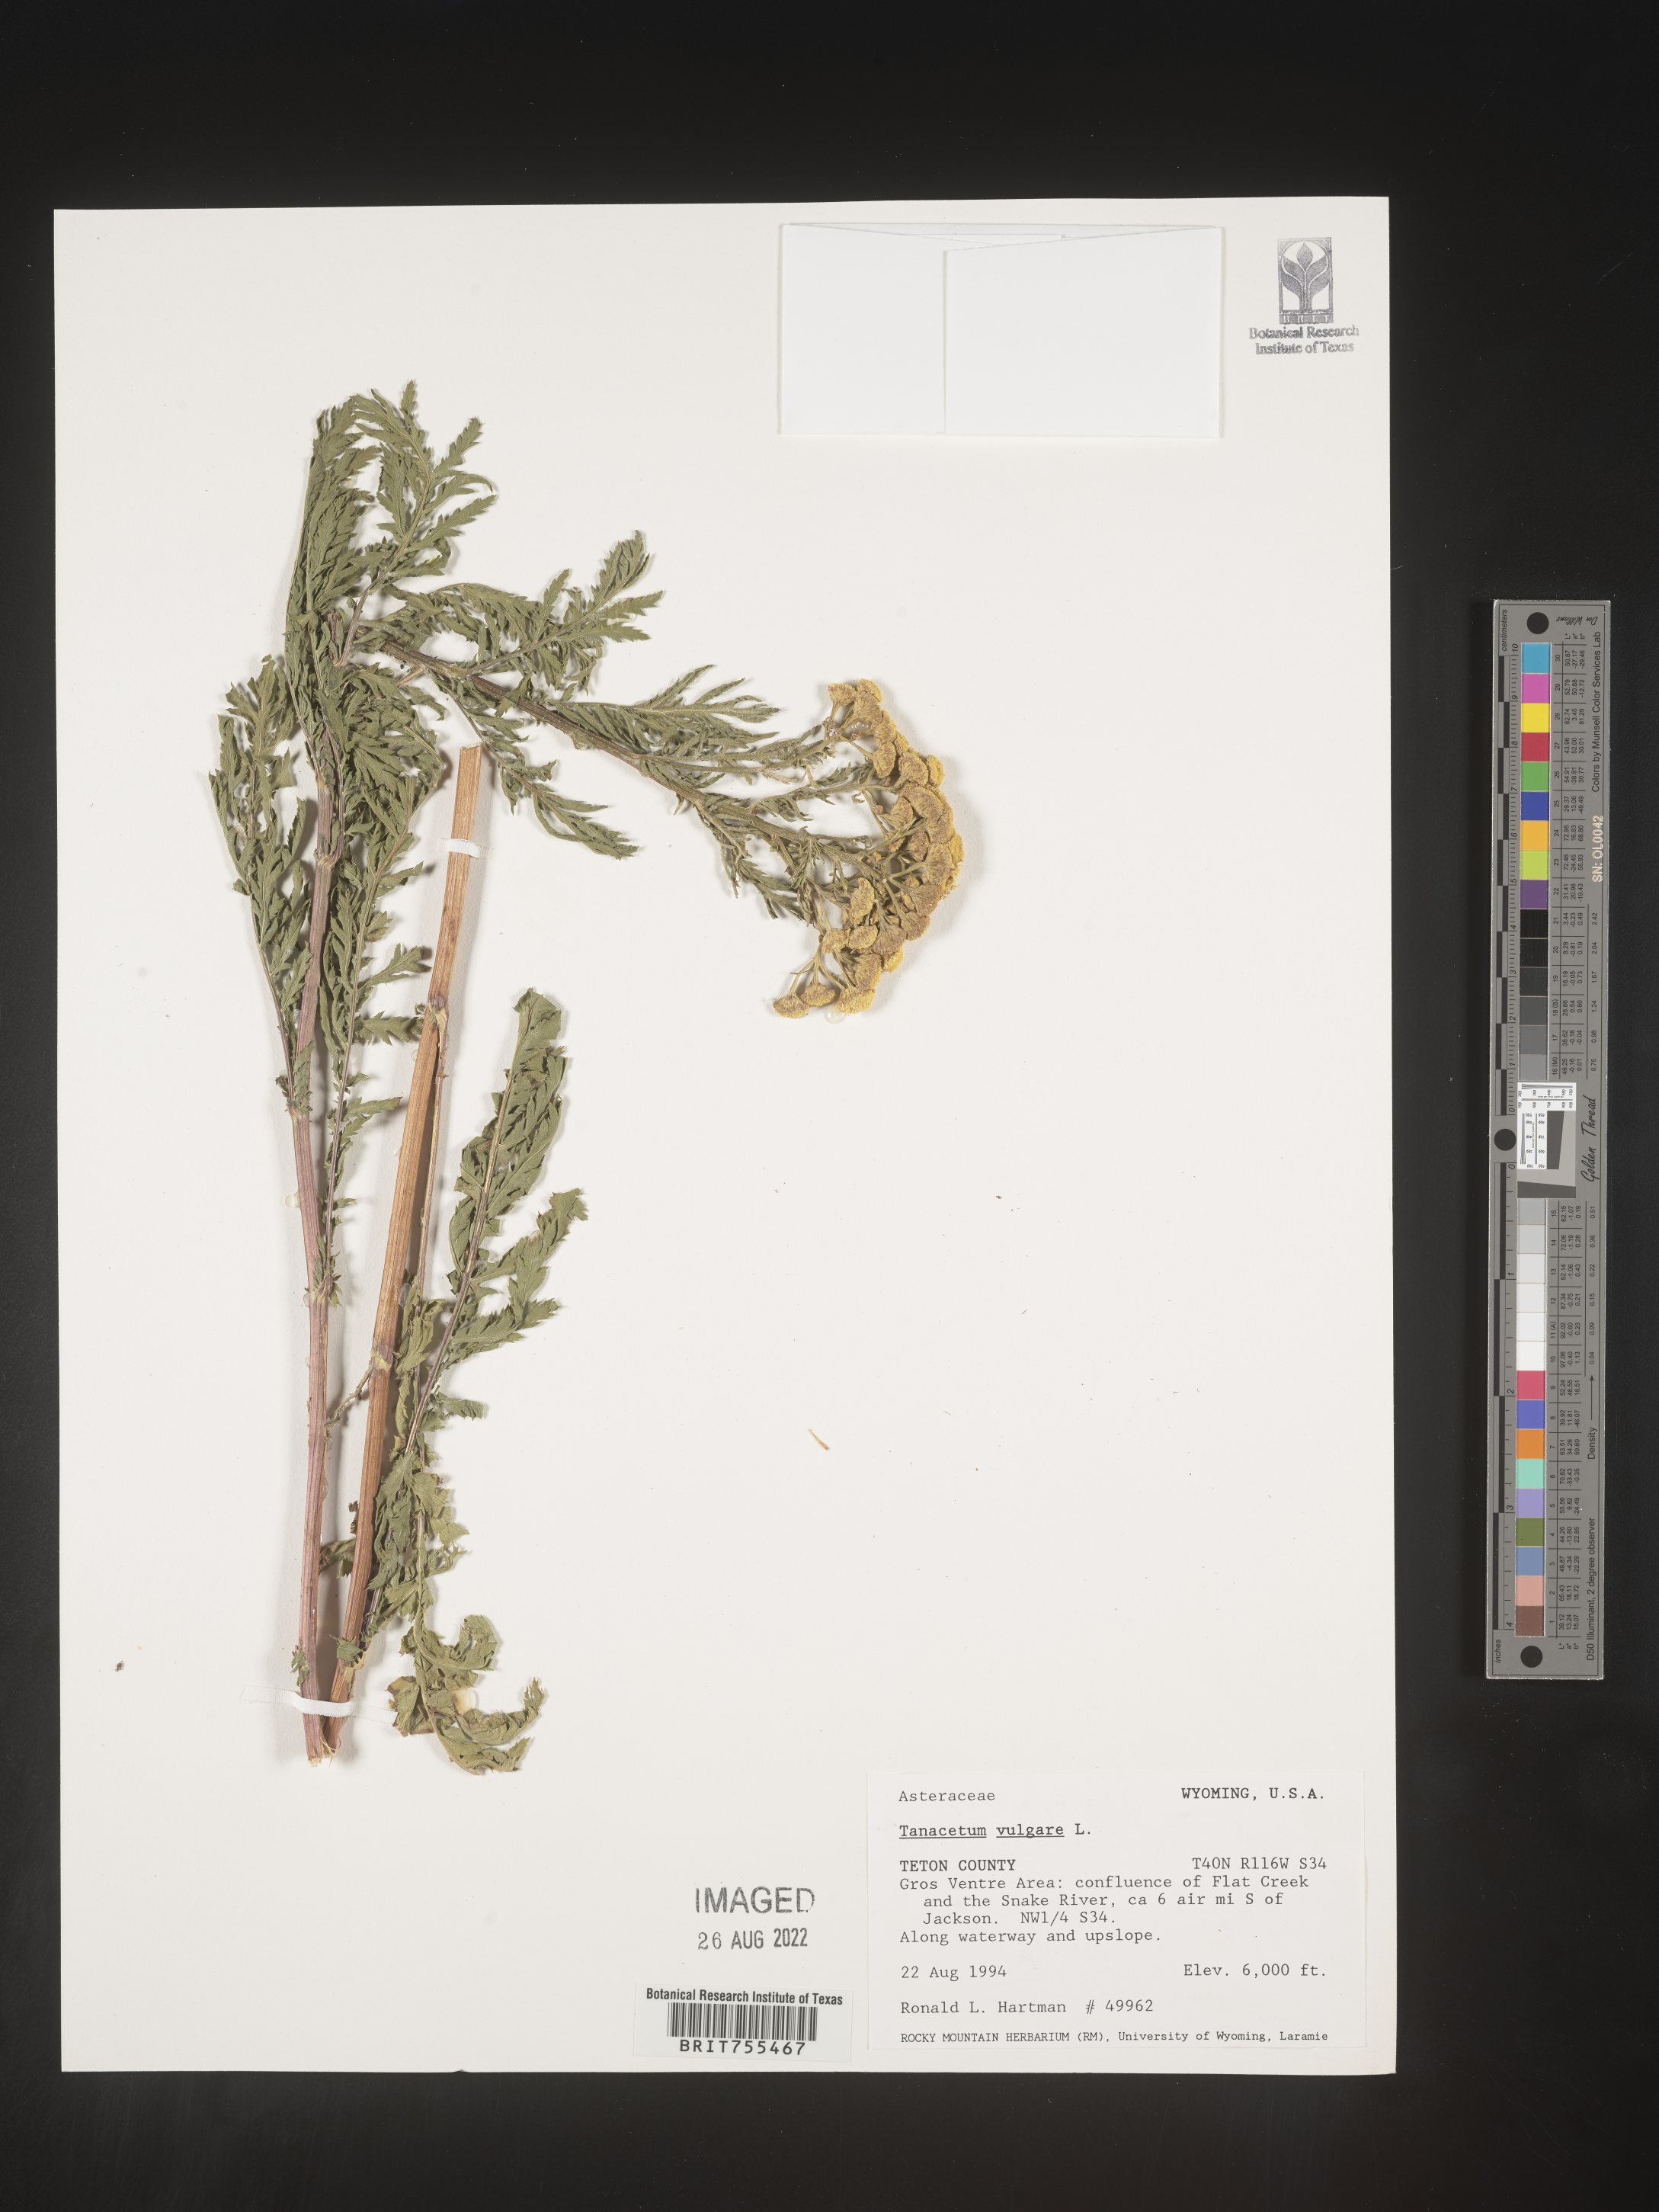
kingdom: Plantae
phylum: Tracheophyta
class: Magnoliopsida
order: Asterales
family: Asteraceae
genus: Tanacetum
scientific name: Tanacetum vulgare
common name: Common tansy
